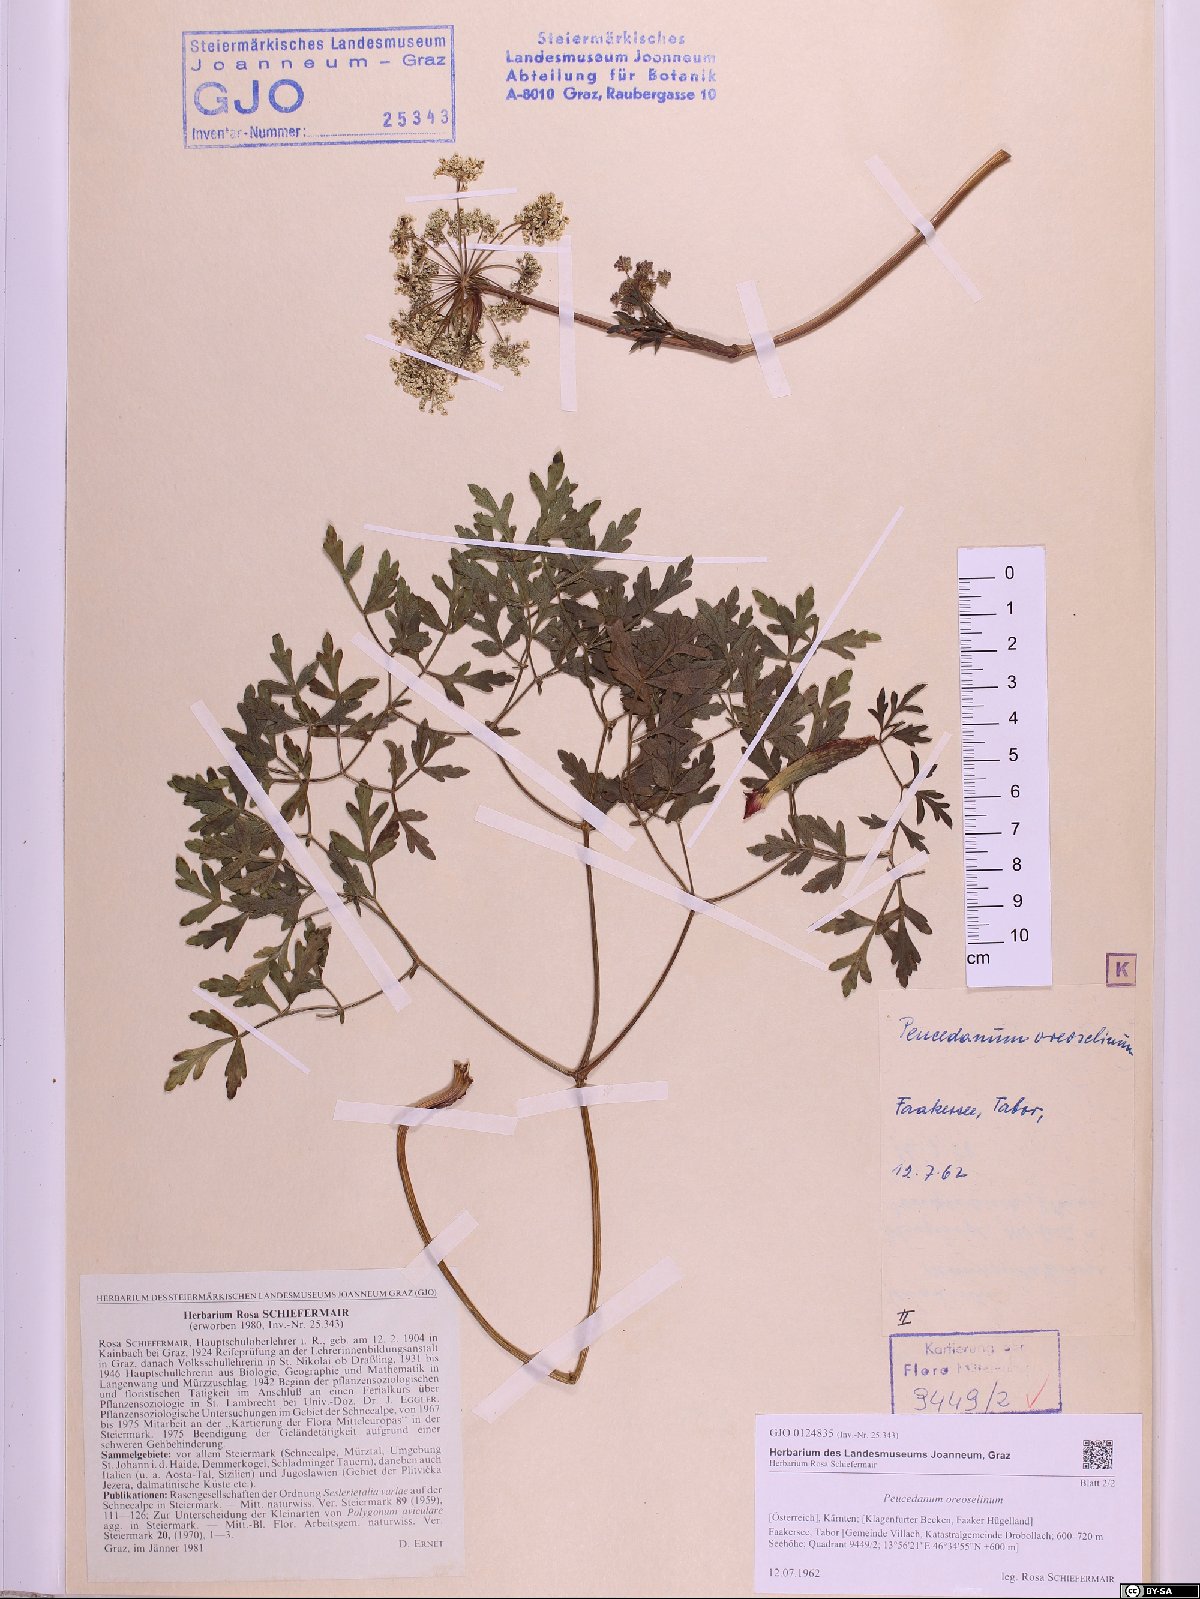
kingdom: Plantae
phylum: Tracheophyta
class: Magnoliopsida
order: Apiales
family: Apiaceae
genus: Oreoselinum
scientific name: Oreoselinum nigrum
